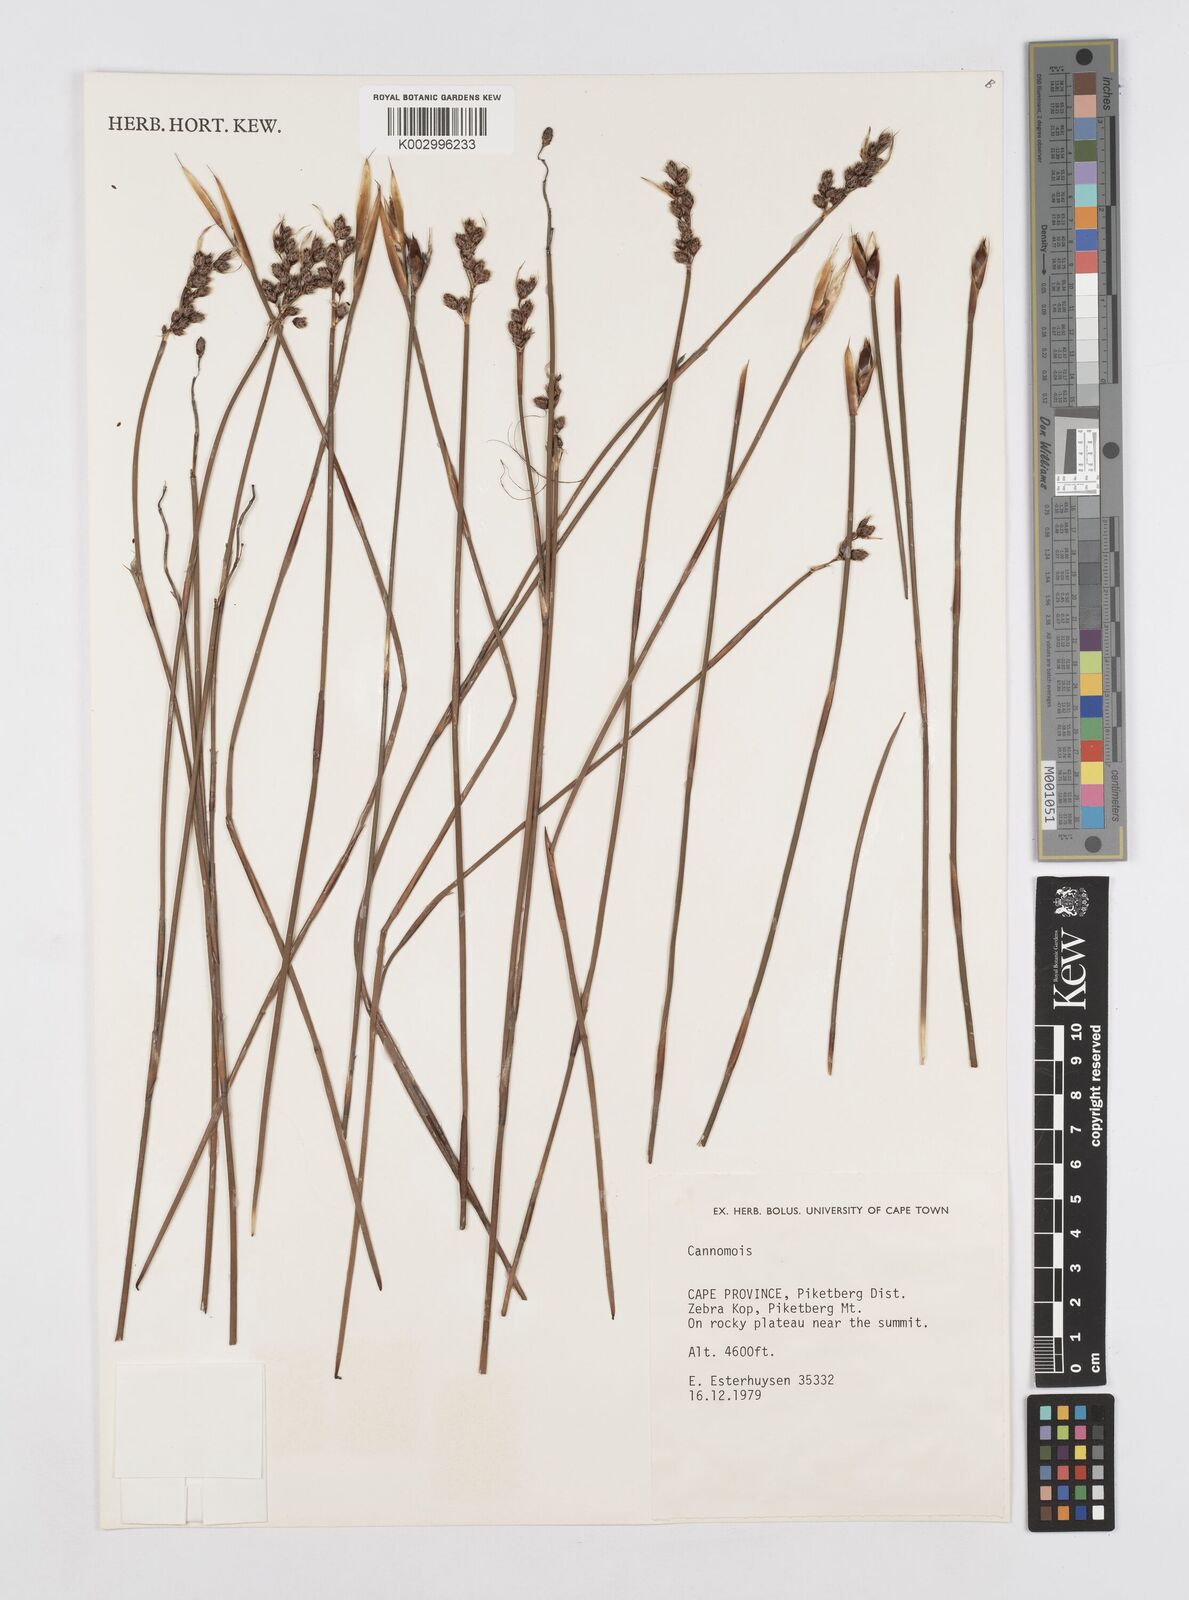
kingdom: Plantae
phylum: Tracheophyta
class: Liliopsida
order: Poales
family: Restionaceae
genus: Cannomois
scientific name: Cannomois
